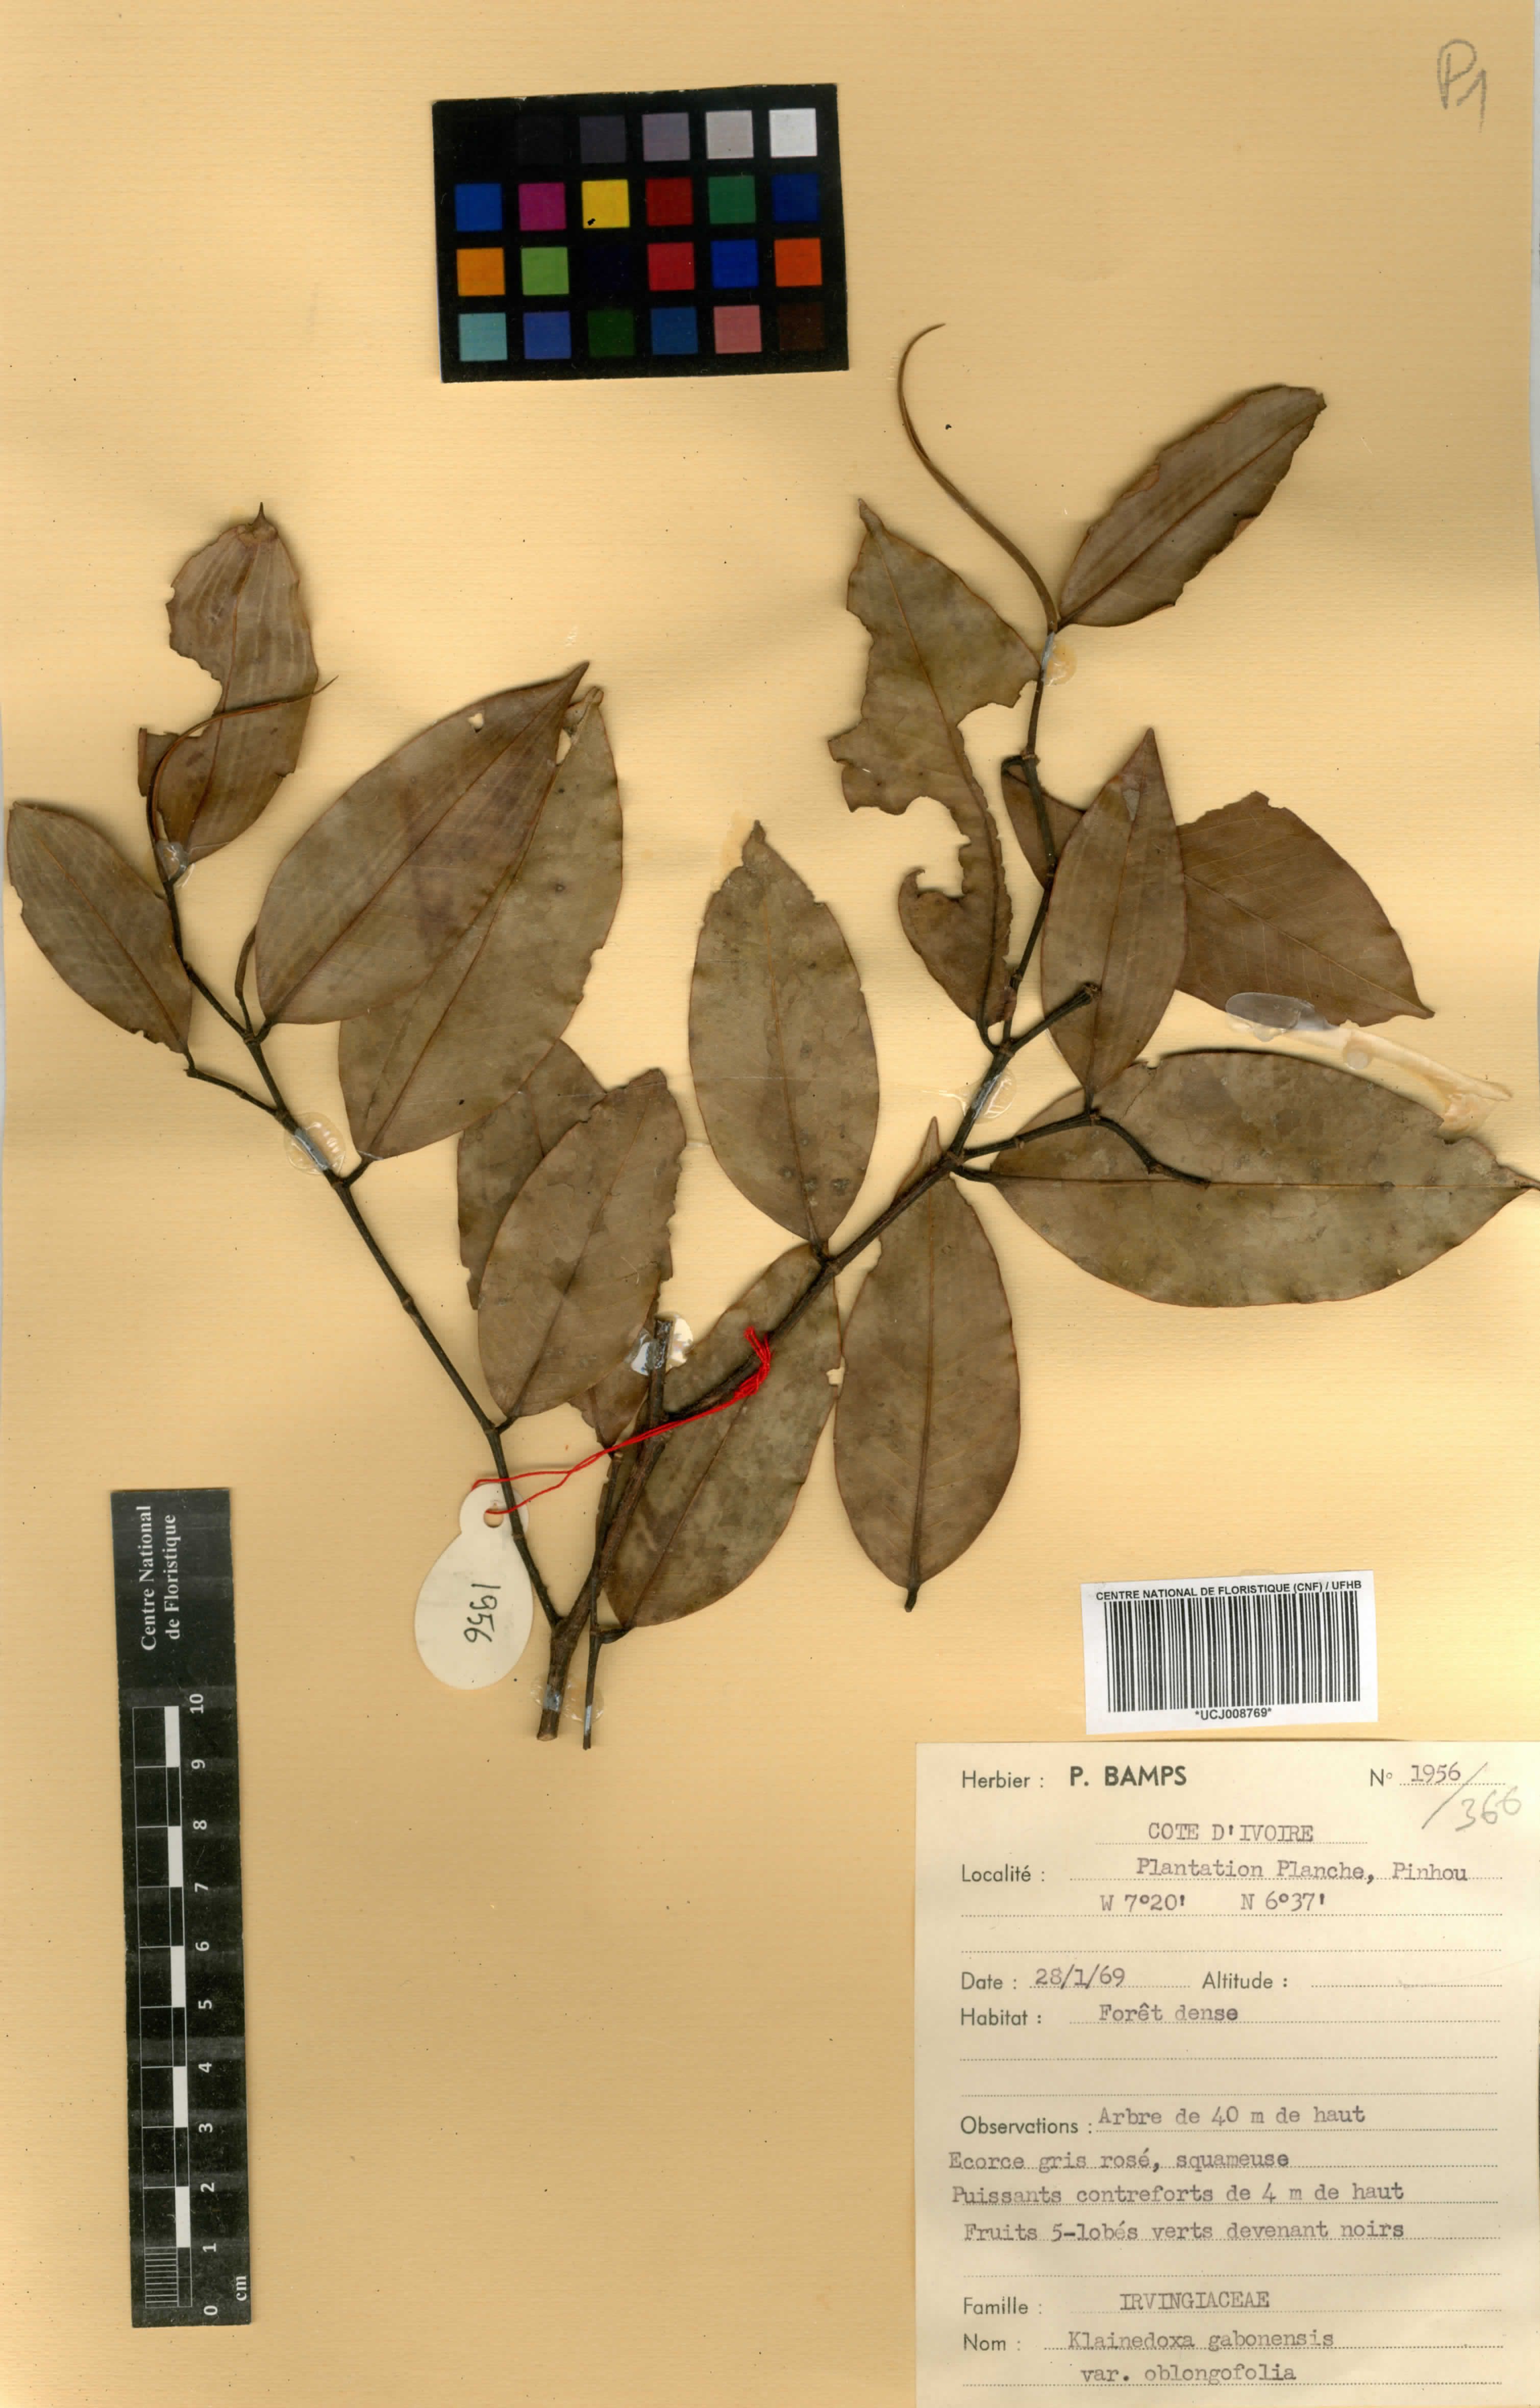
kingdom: Plantae
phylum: Tracheophyta
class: Magnoliopsida
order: Malpighiales
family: Irvingiaceae
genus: Klainedoxa
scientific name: Klainedoxa gabonensis
